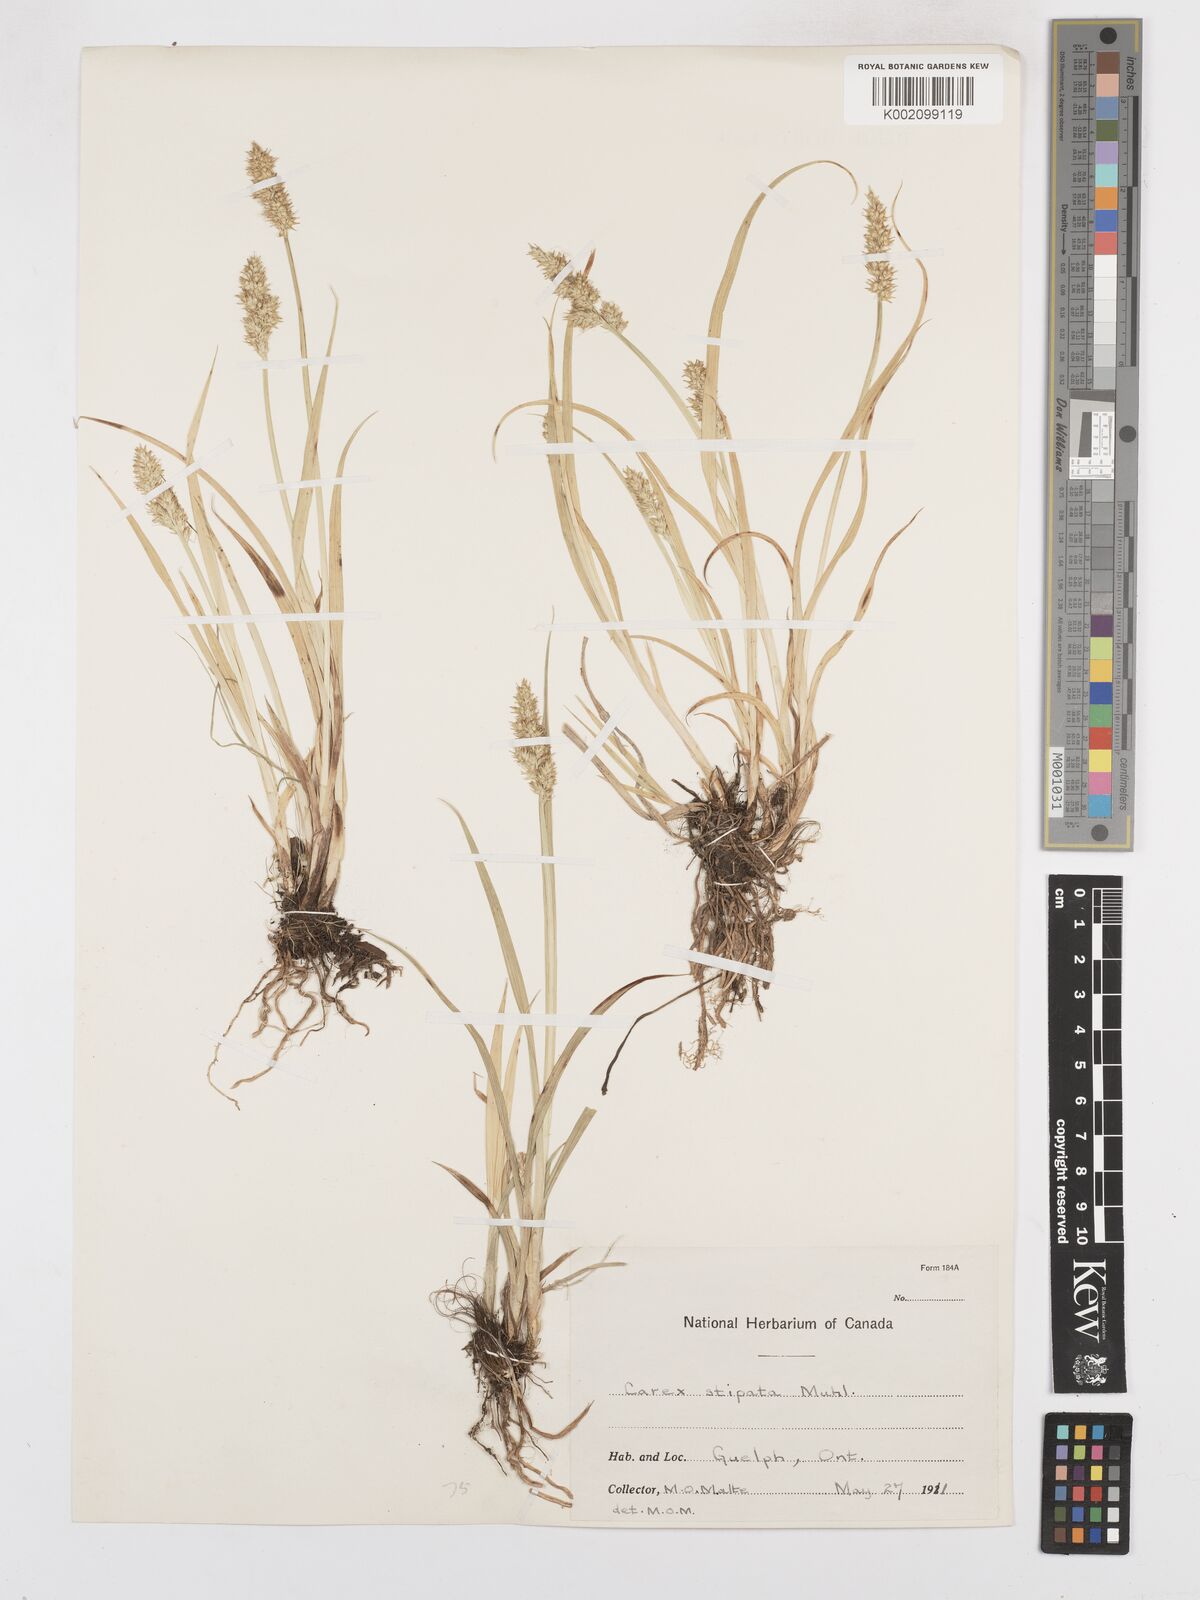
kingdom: Plantae
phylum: Tracheophyta
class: Liliopsida
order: Poales
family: Cyperaceae
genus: Carex
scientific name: Carex stipata
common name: Awl-fruited sedge
